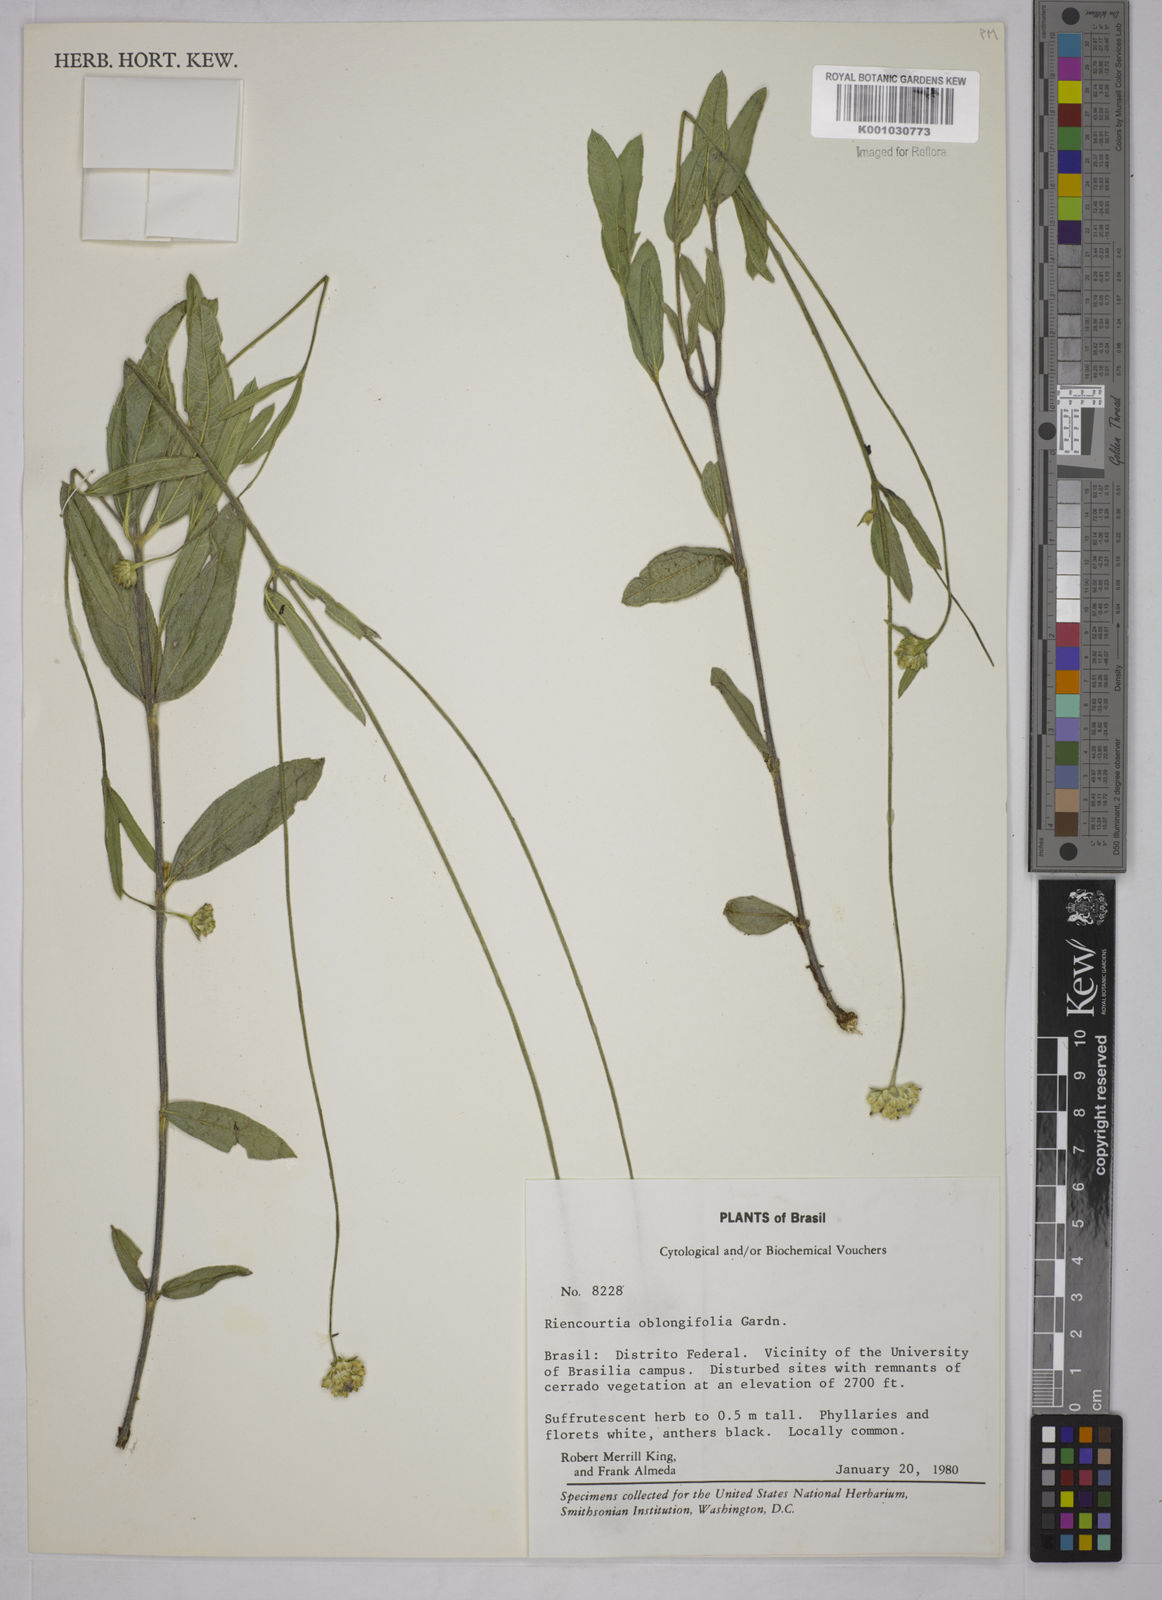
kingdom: Plantae
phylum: Tracheophyta
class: Magnoliopsida
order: Asterales
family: Asteraceae
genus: Riencourtia
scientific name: Riencourtia oblongifolia
